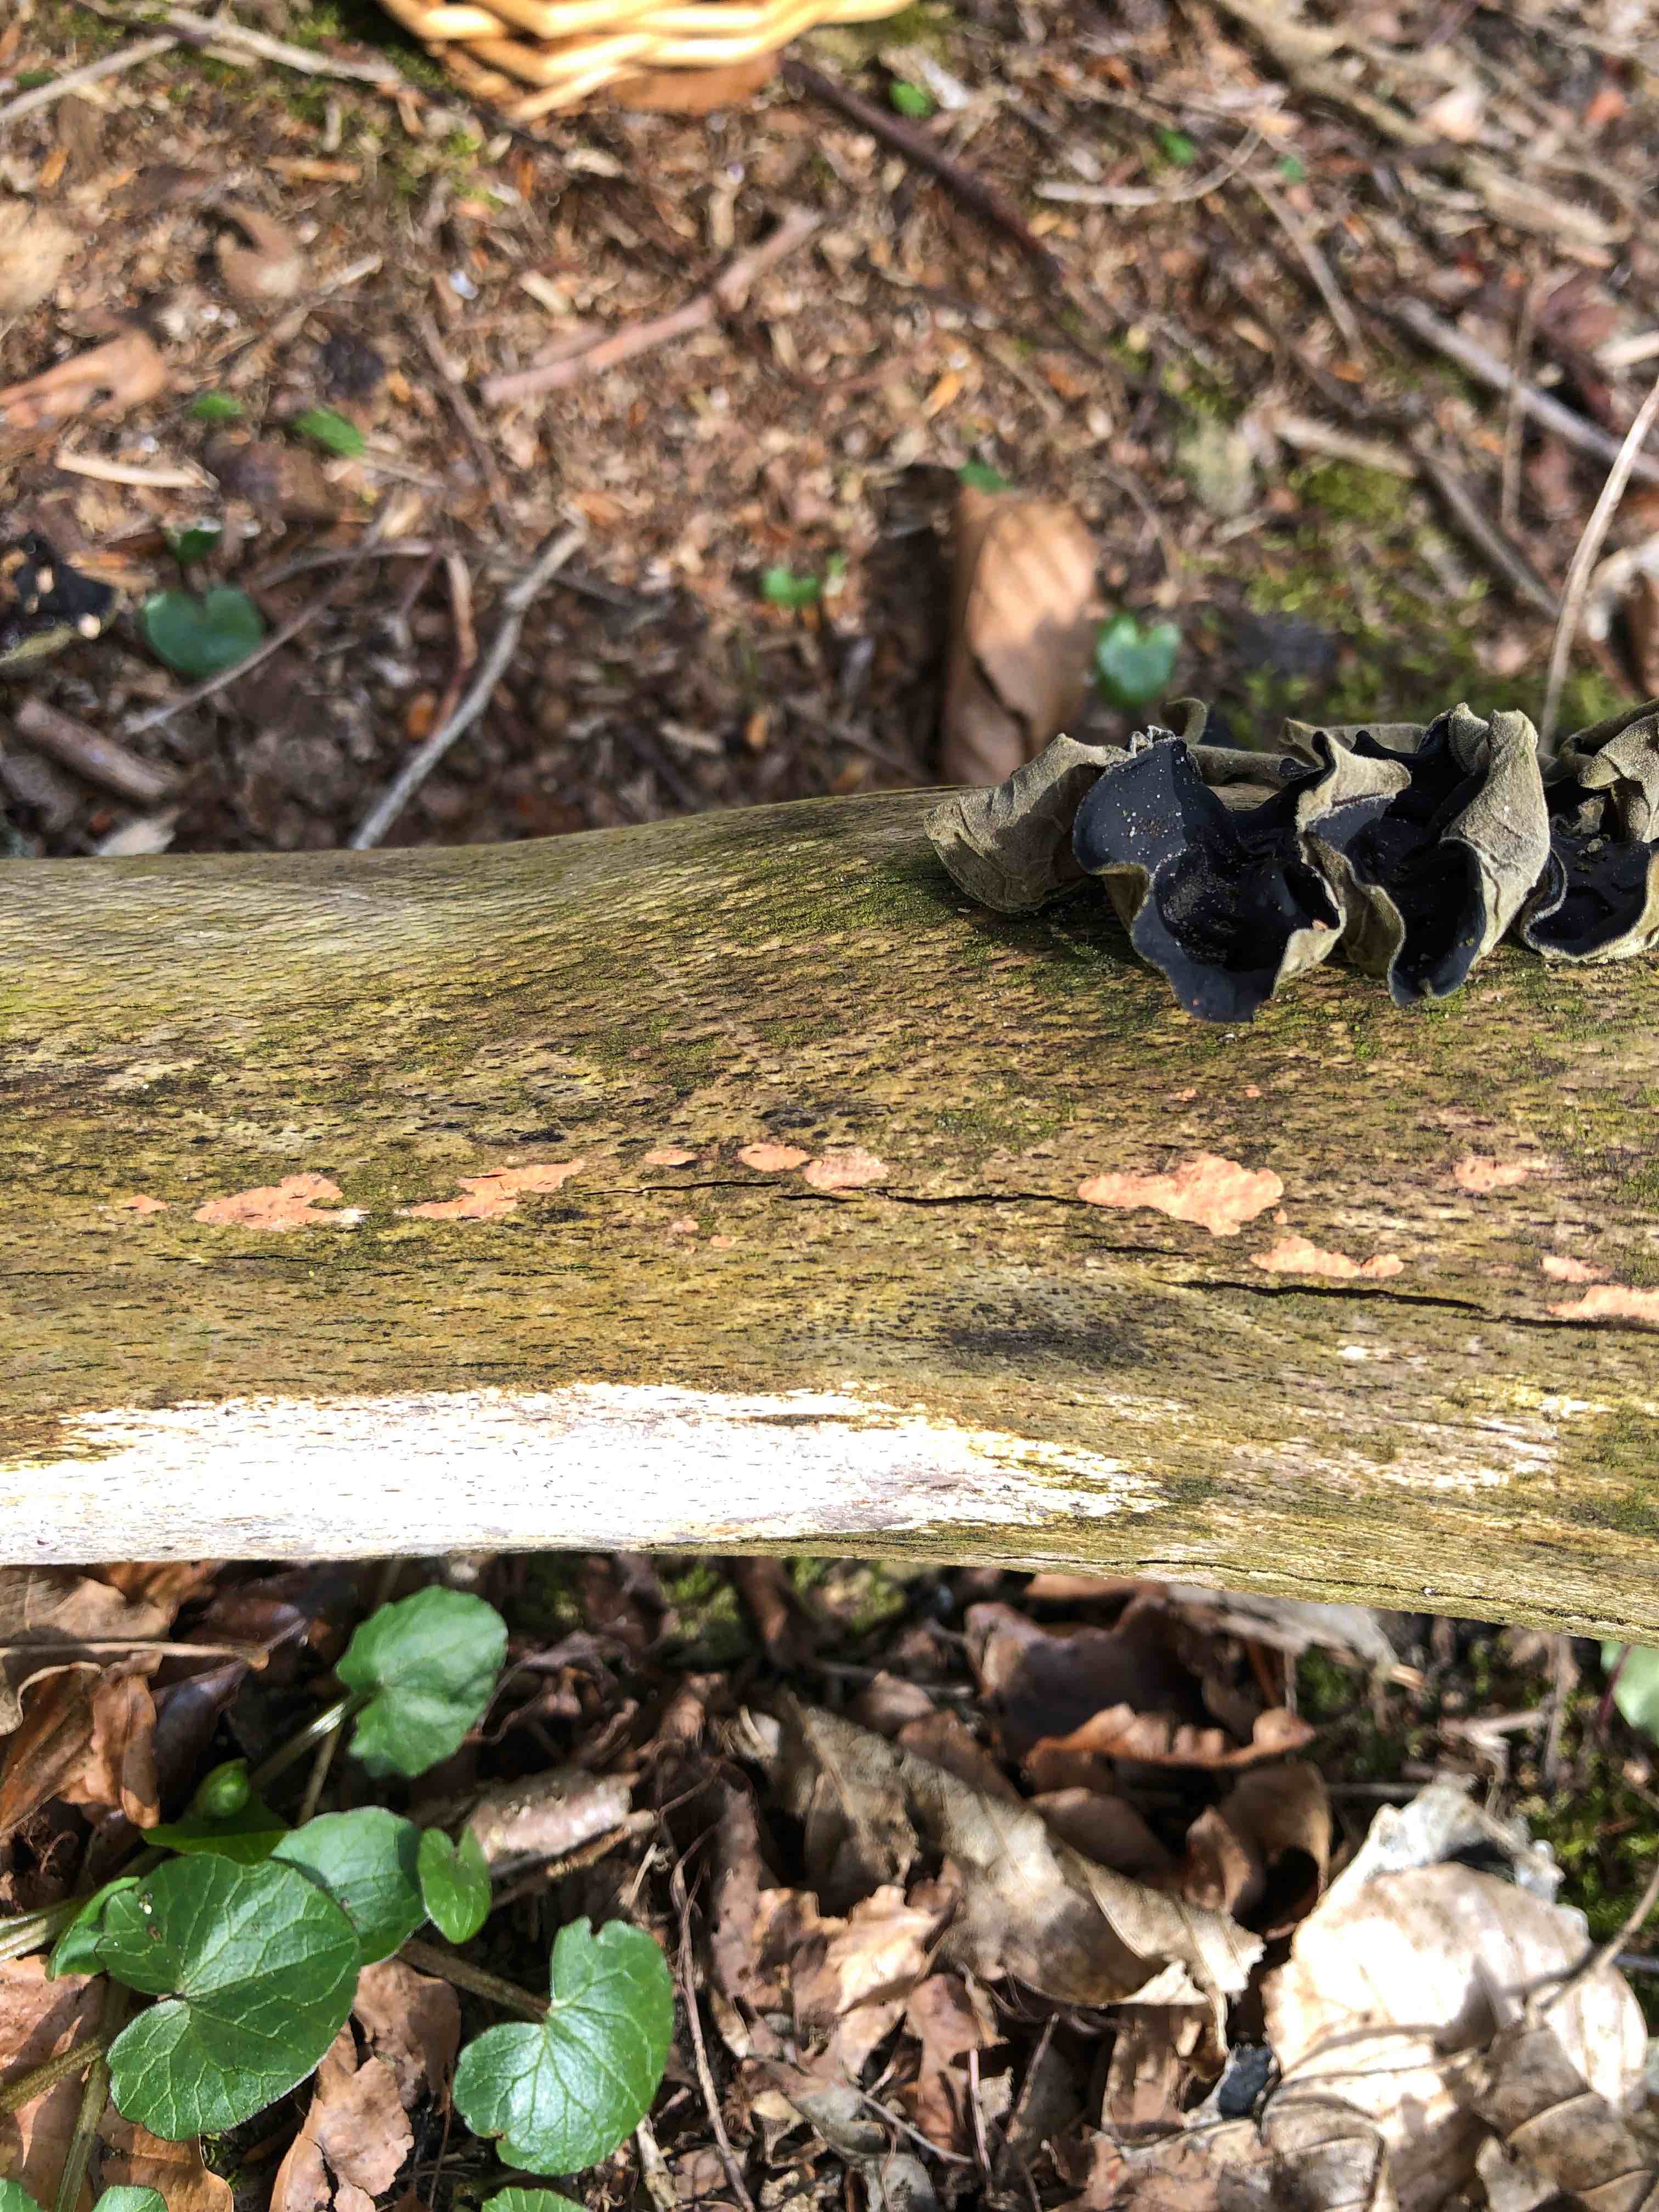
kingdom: Fungi
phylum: Basidiomycota
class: Agaricomycetes
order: Auriculariales
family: Auriculariaceae
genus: Auricularia
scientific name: Auricularia auricula-judae
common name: almindelig judasøre
